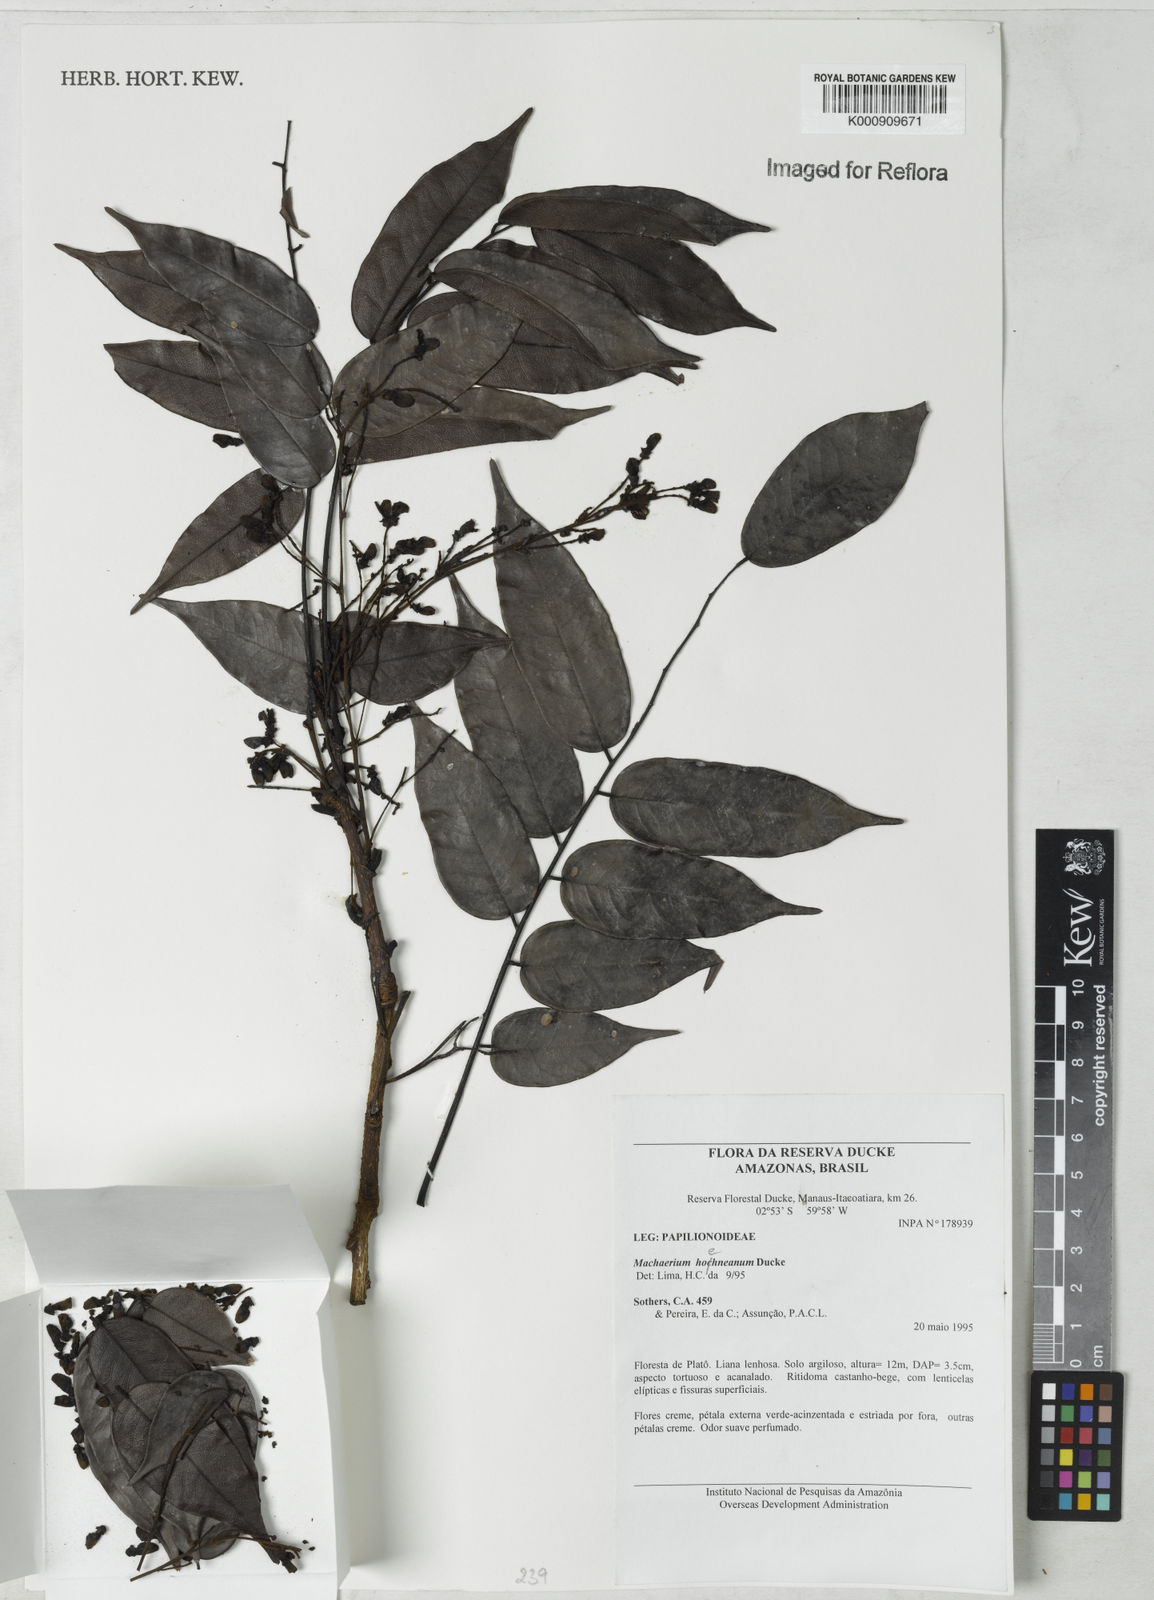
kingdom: Plantae
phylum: Tracheophyta
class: Magnoliopsida
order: Fabales
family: Fabaceae
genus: Machaerium
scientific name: Machaerium hoehneanum
